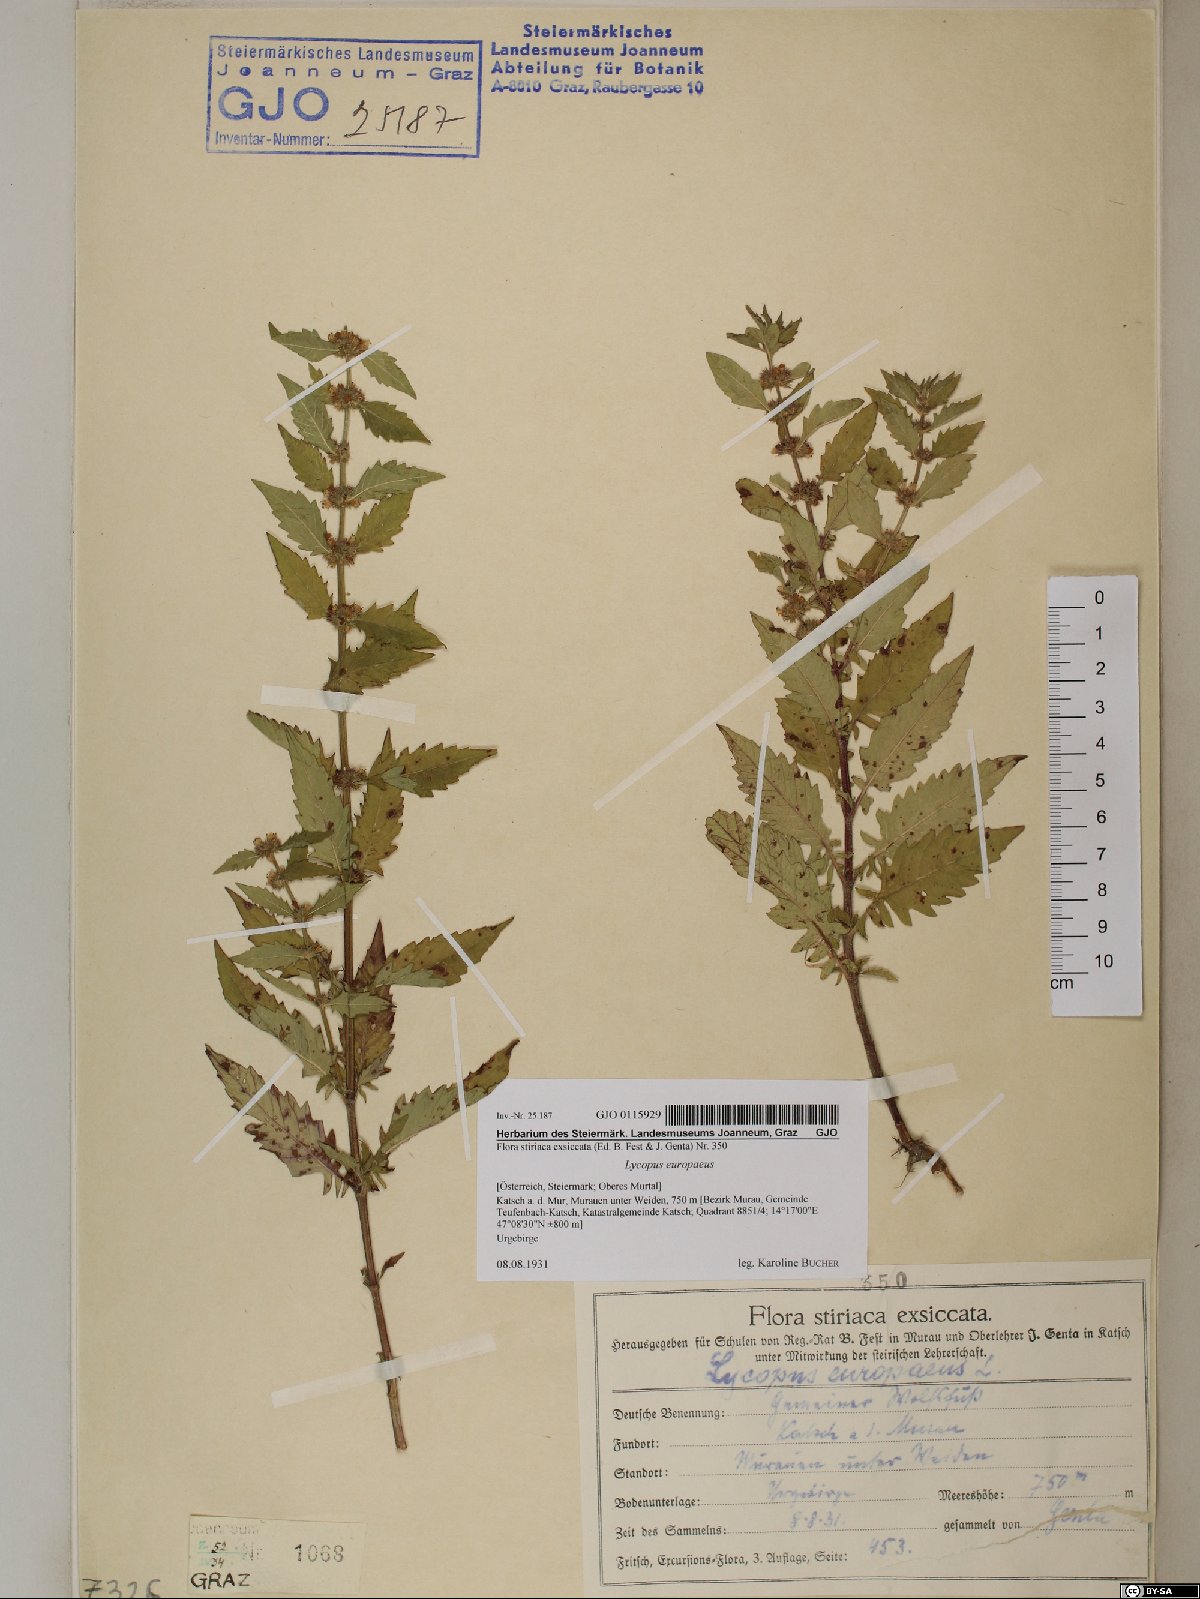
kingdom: Plantae
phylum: Tracheophyta
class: Magnoliopsida
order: Lamiales
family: Lamiaceae
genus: Lycopus
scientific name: Lycopus europaeus
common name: European bugleweed
